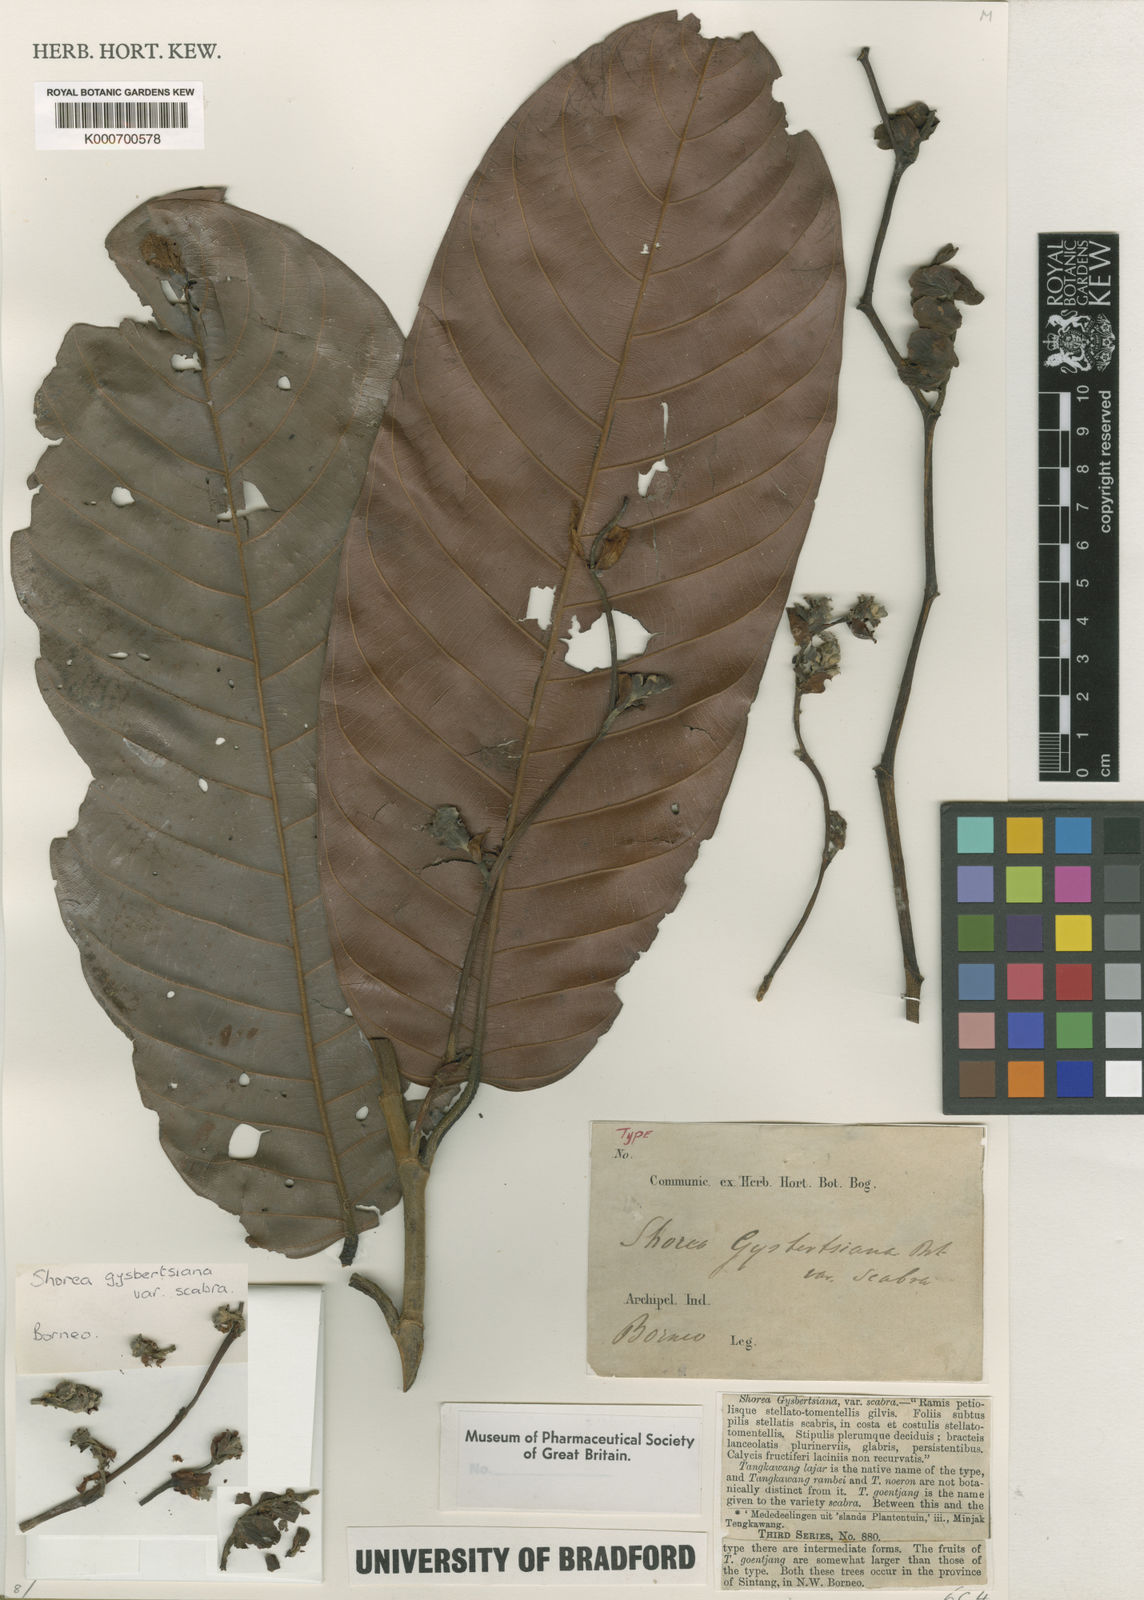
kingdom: Plantae
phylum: Tracheophyta
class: Magnoliopsida
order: Malvales
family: Dipterocarpaceae
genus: Shorea
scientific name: Shorea macrophylla
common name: Light red meranti
